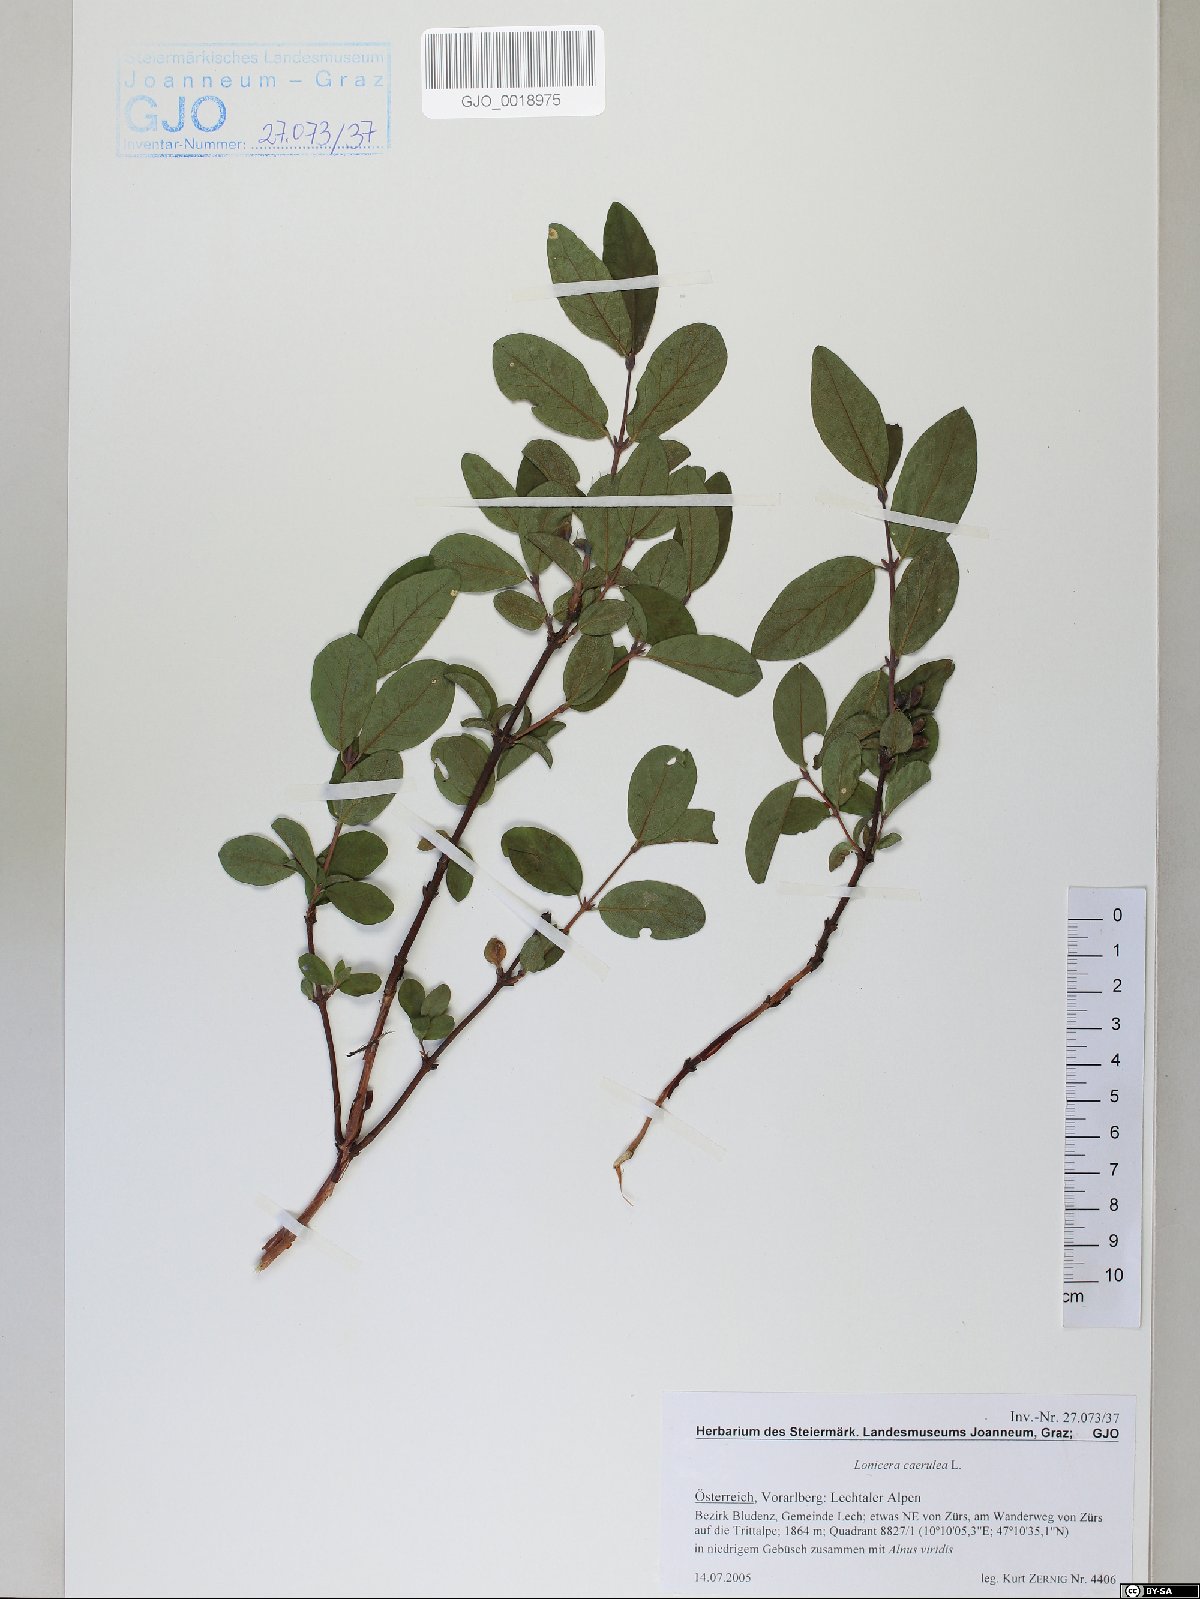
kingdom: Plantae
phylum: Tracheophyta
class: Magnoliopsida
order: Dipsacales
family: Caprifoliaceae
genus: Lonicera
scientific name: Lonicera caerulea
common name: Blue honeysuckle
